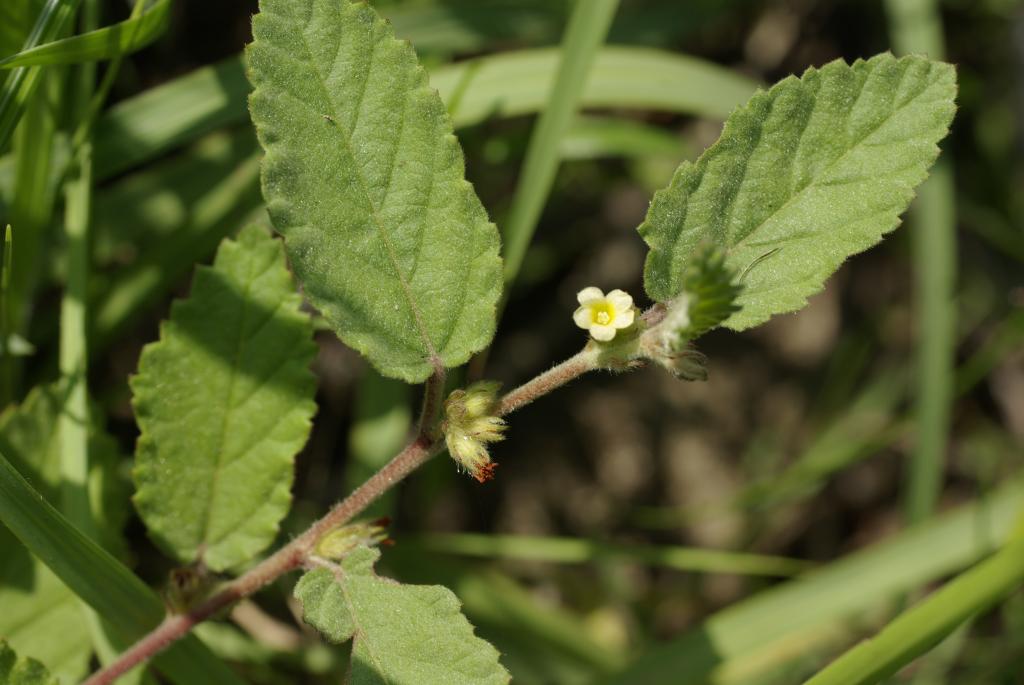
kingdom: Plantae
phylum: Tracheophyta
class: Magnoliopsida
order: Malvales
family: Malvaceae
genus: Waltheria
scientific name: Waltheria indica
